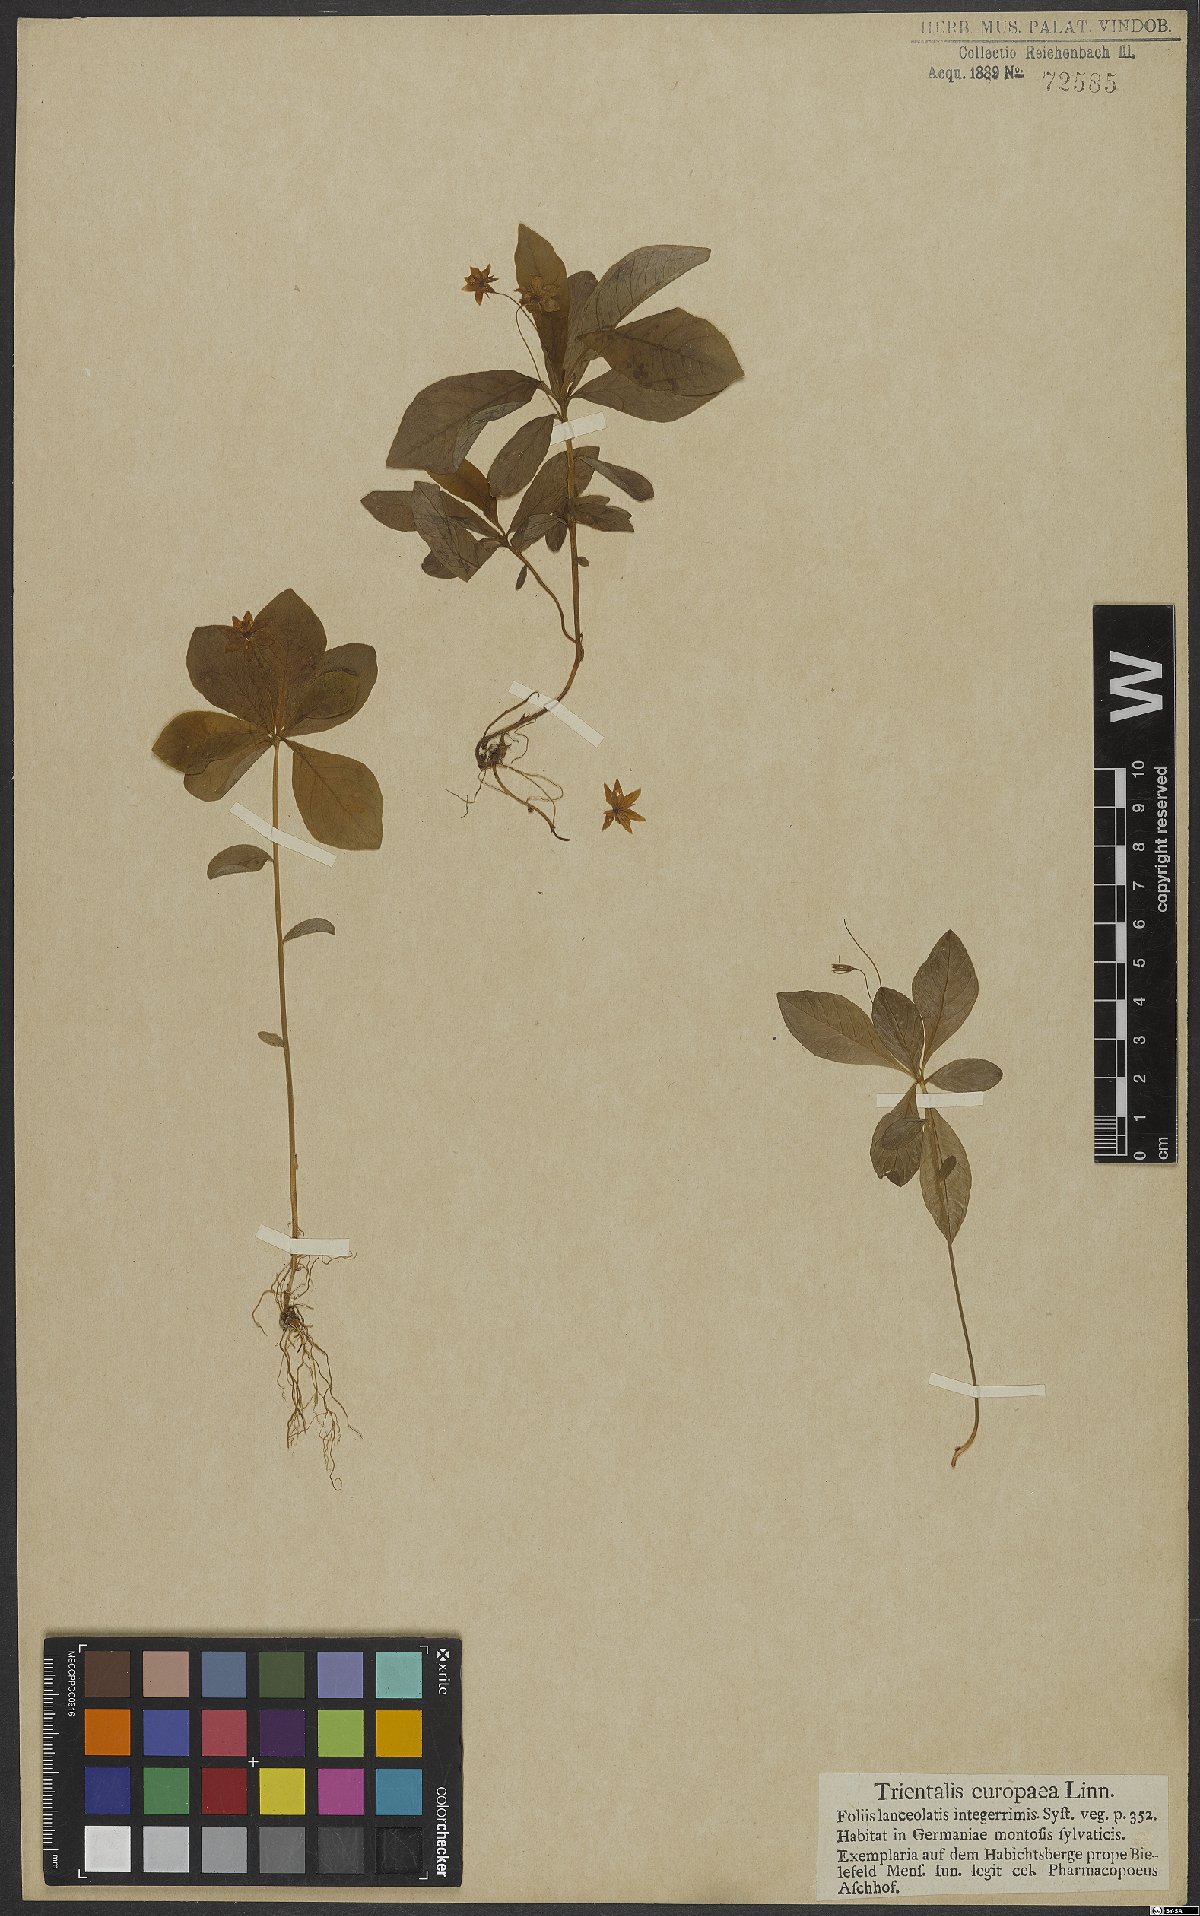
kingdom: Plantae
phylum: Tracheophyta
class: Magnoliopsida
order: Ericales
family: Primulaceae
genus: Lysimachia
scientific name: Lysimachia europaea
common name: Arctic starflower
